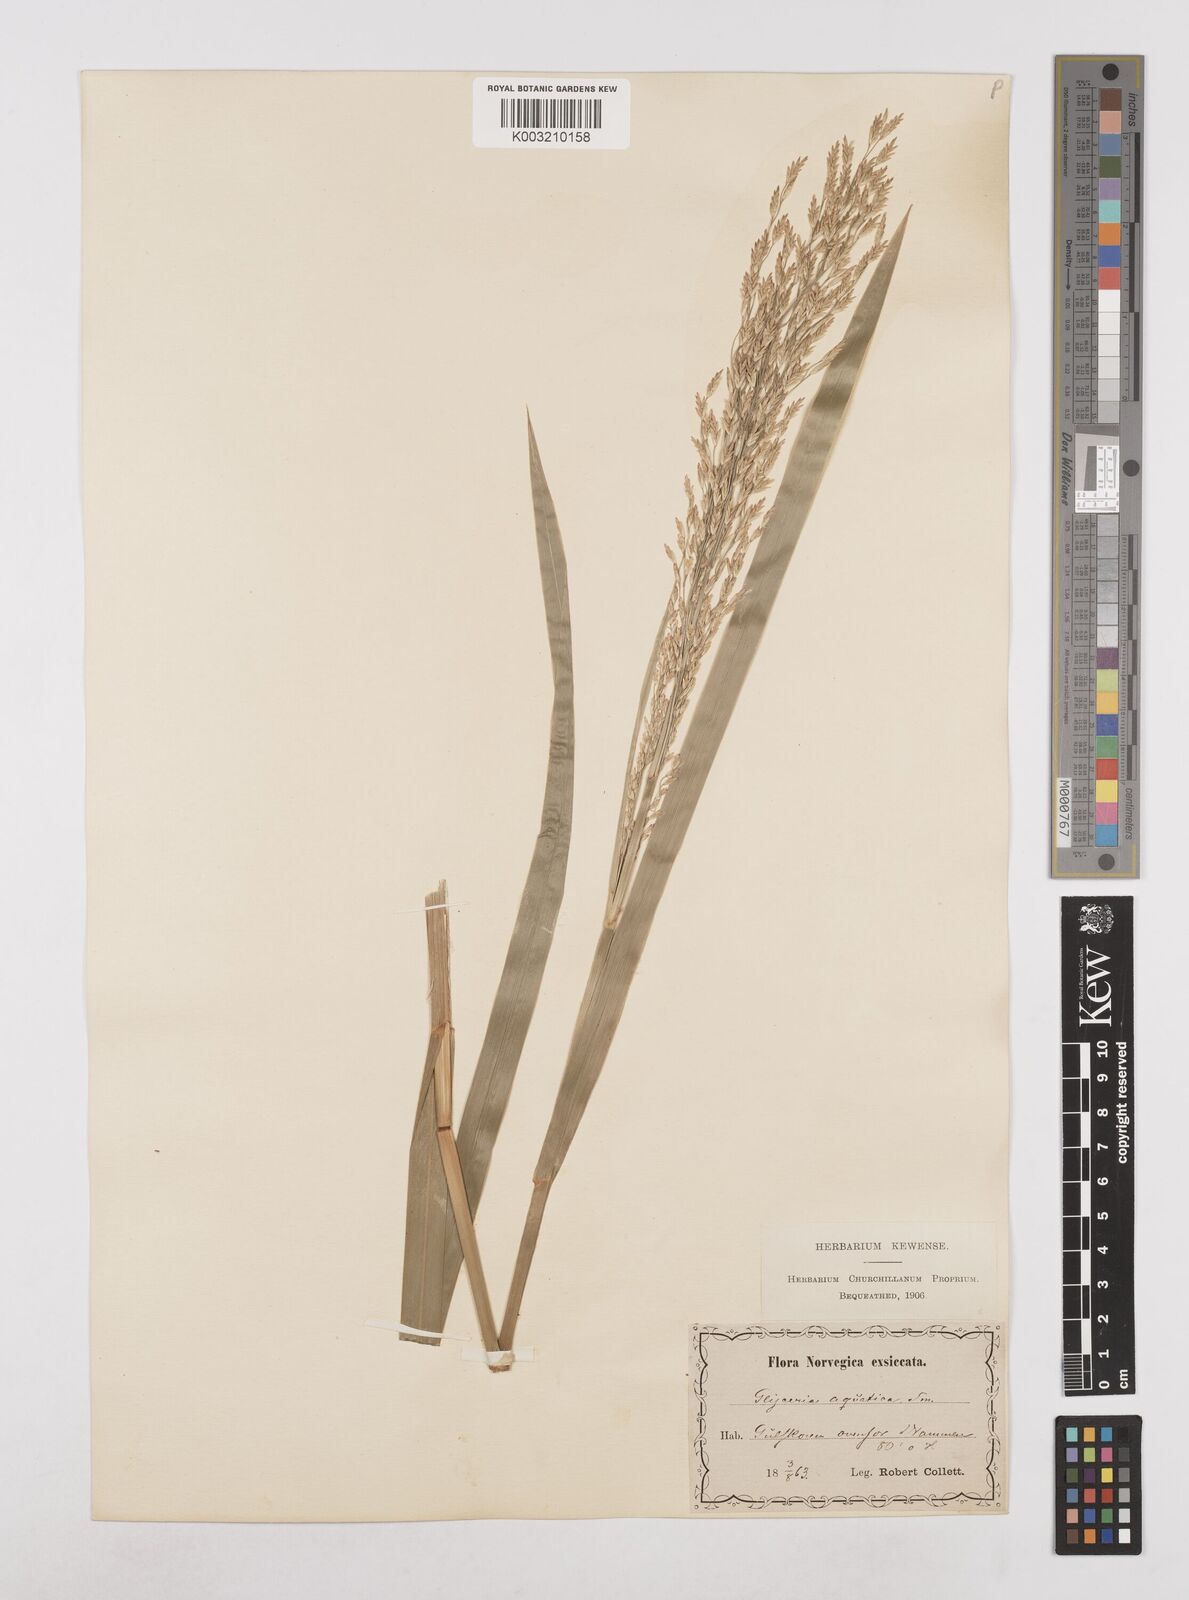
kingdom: Plantae
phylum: Tracheophyta
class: Liliopsida
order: Poales
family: Poaceae
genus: Glyceria
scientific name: Glyceria maxima
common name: Reed mannagrass
